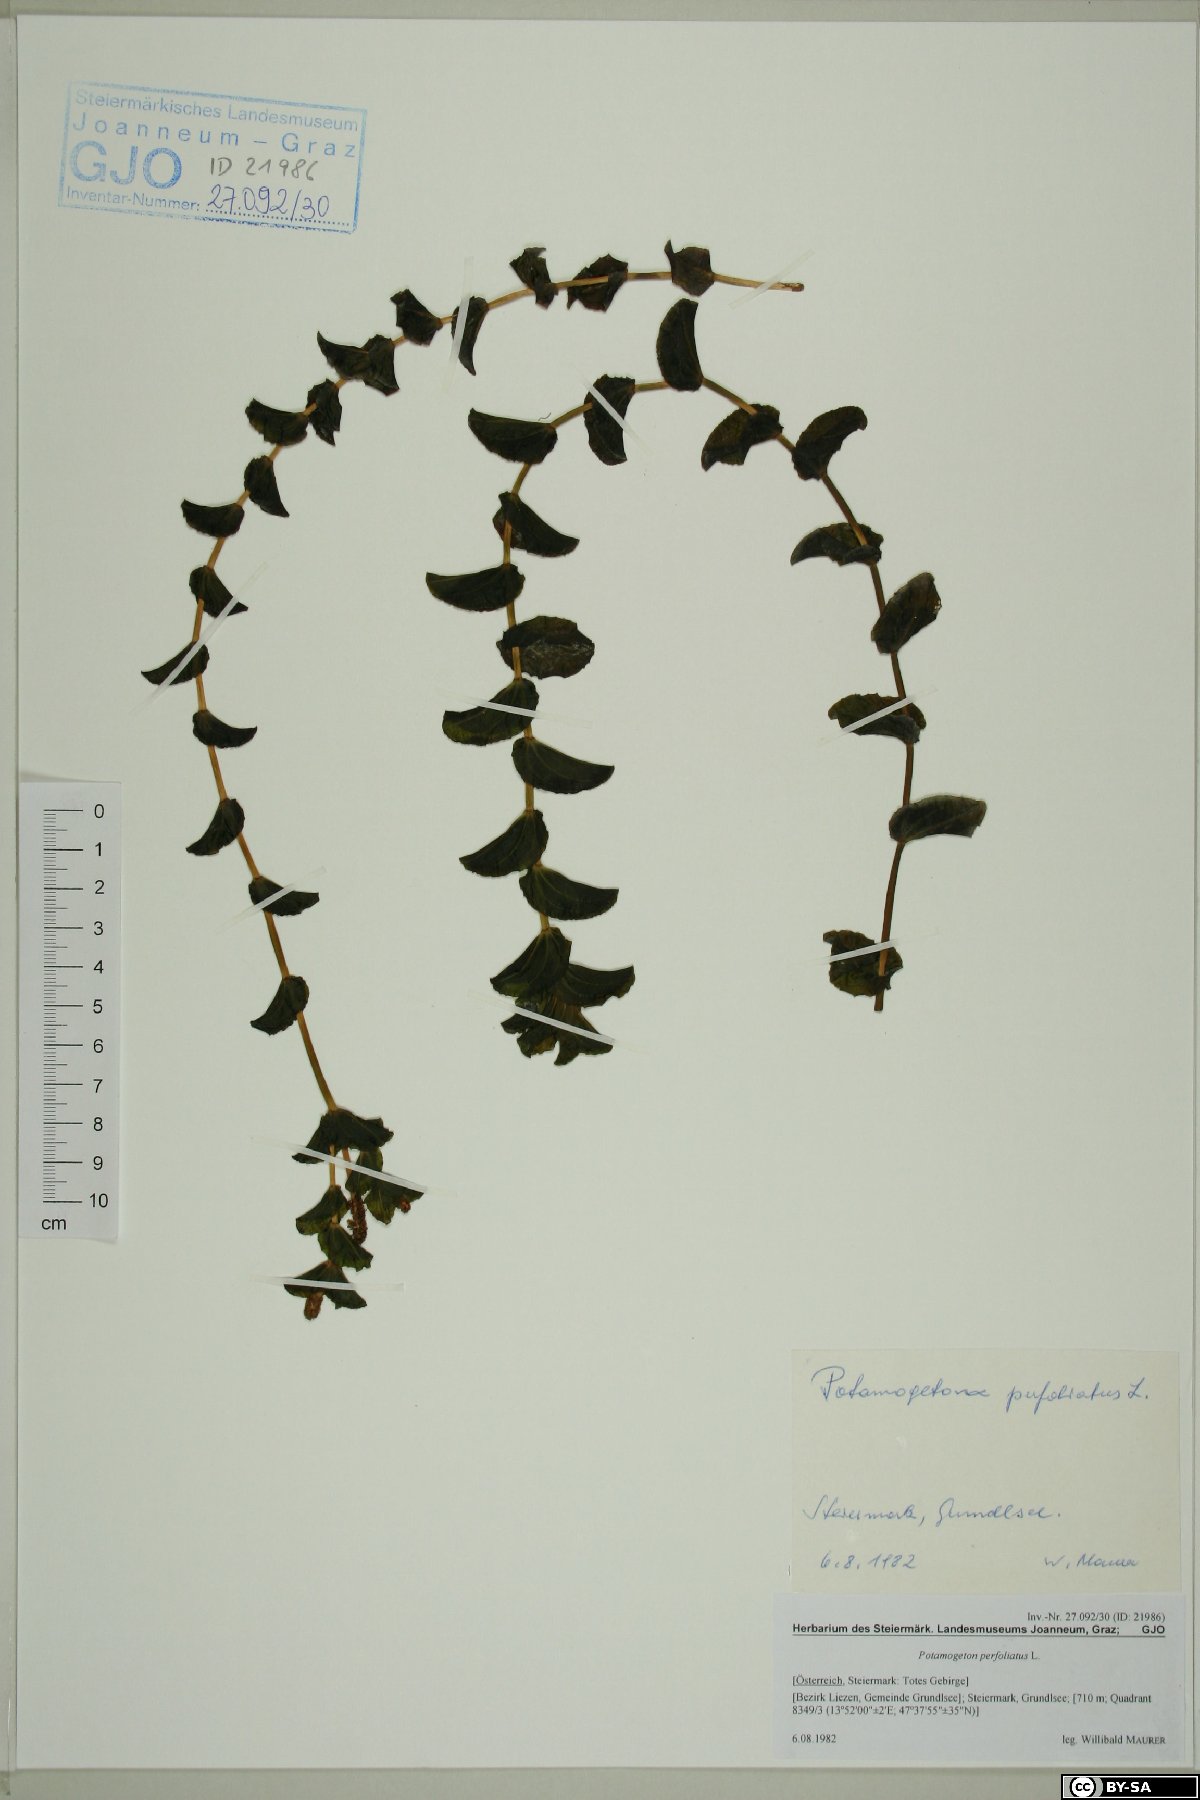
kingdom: Plantae
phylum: Tracheophyta
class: Liliopsida
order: Alismatales
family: Potamogetonaceae
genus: Potamogeton
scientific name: Potamogeton perfoliatus
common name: Perfoliate pondweed
